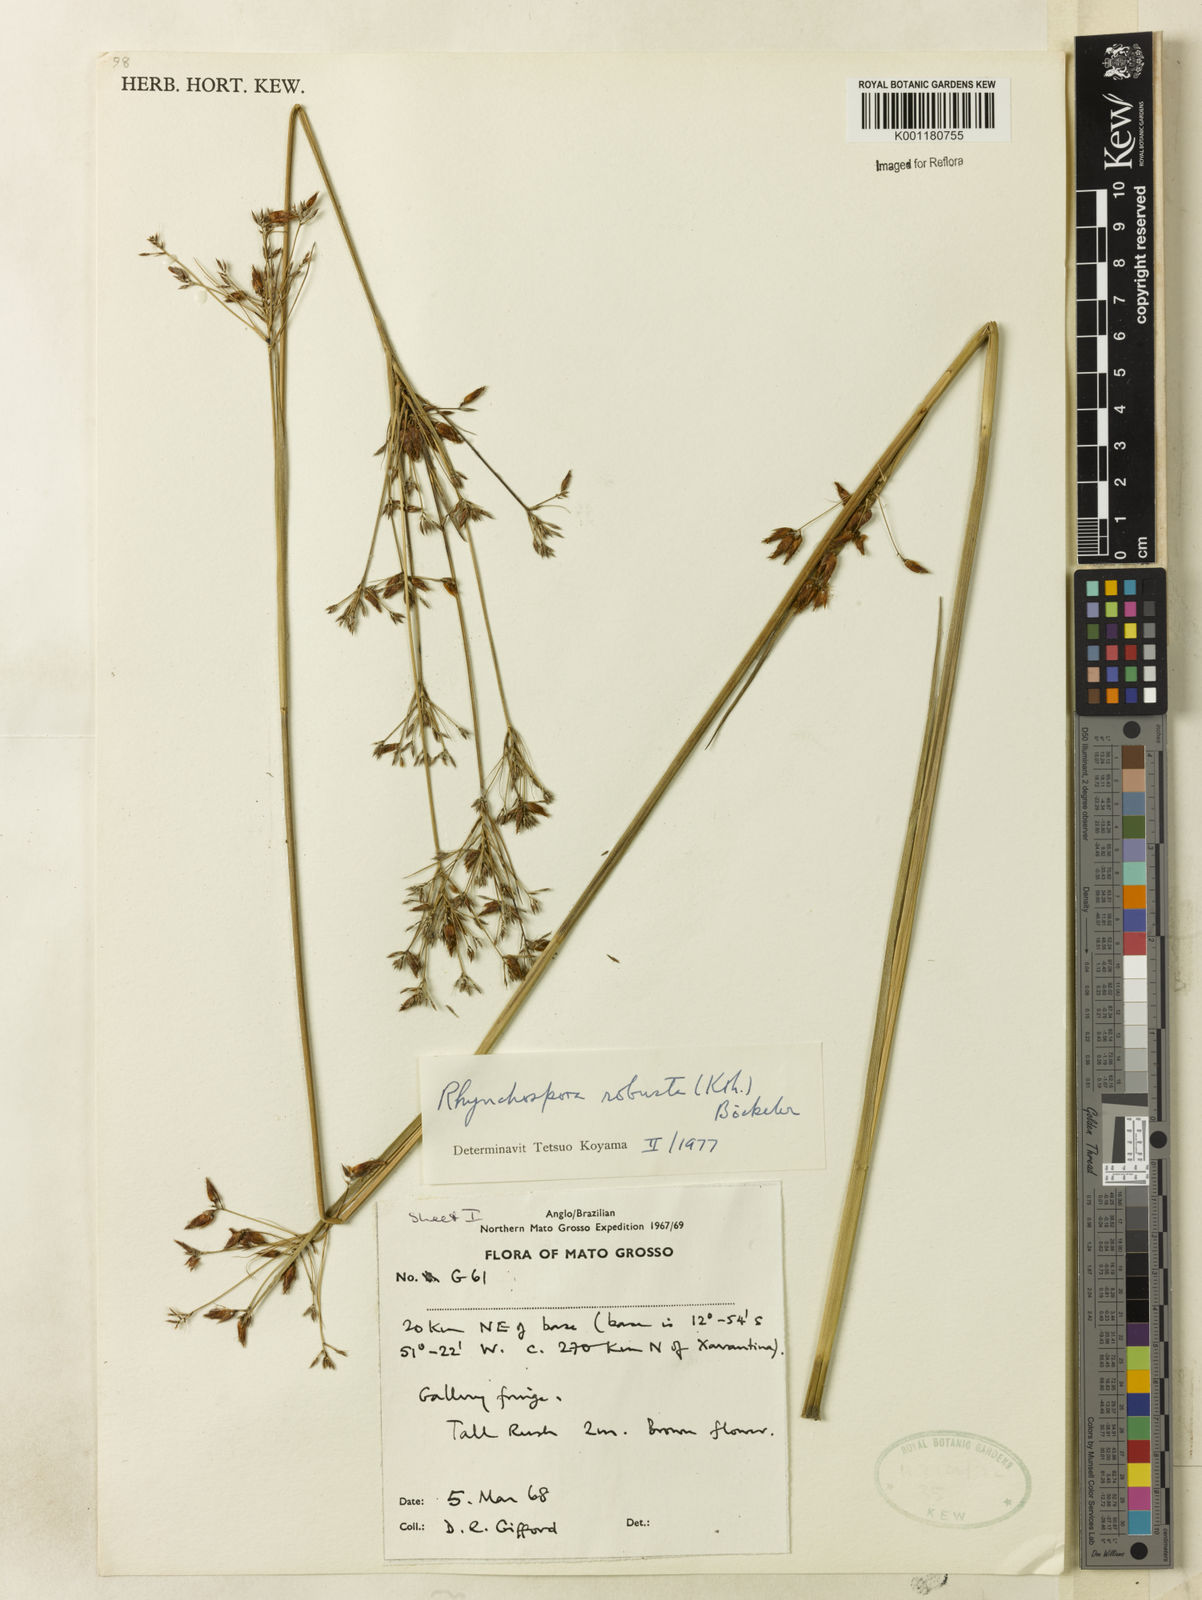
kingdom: Plantae
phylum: Tracheophyta
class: Liliopsida
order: Poales
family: Cyperaceae
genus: Rhynchospora
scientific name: Rhynchospora robusta
